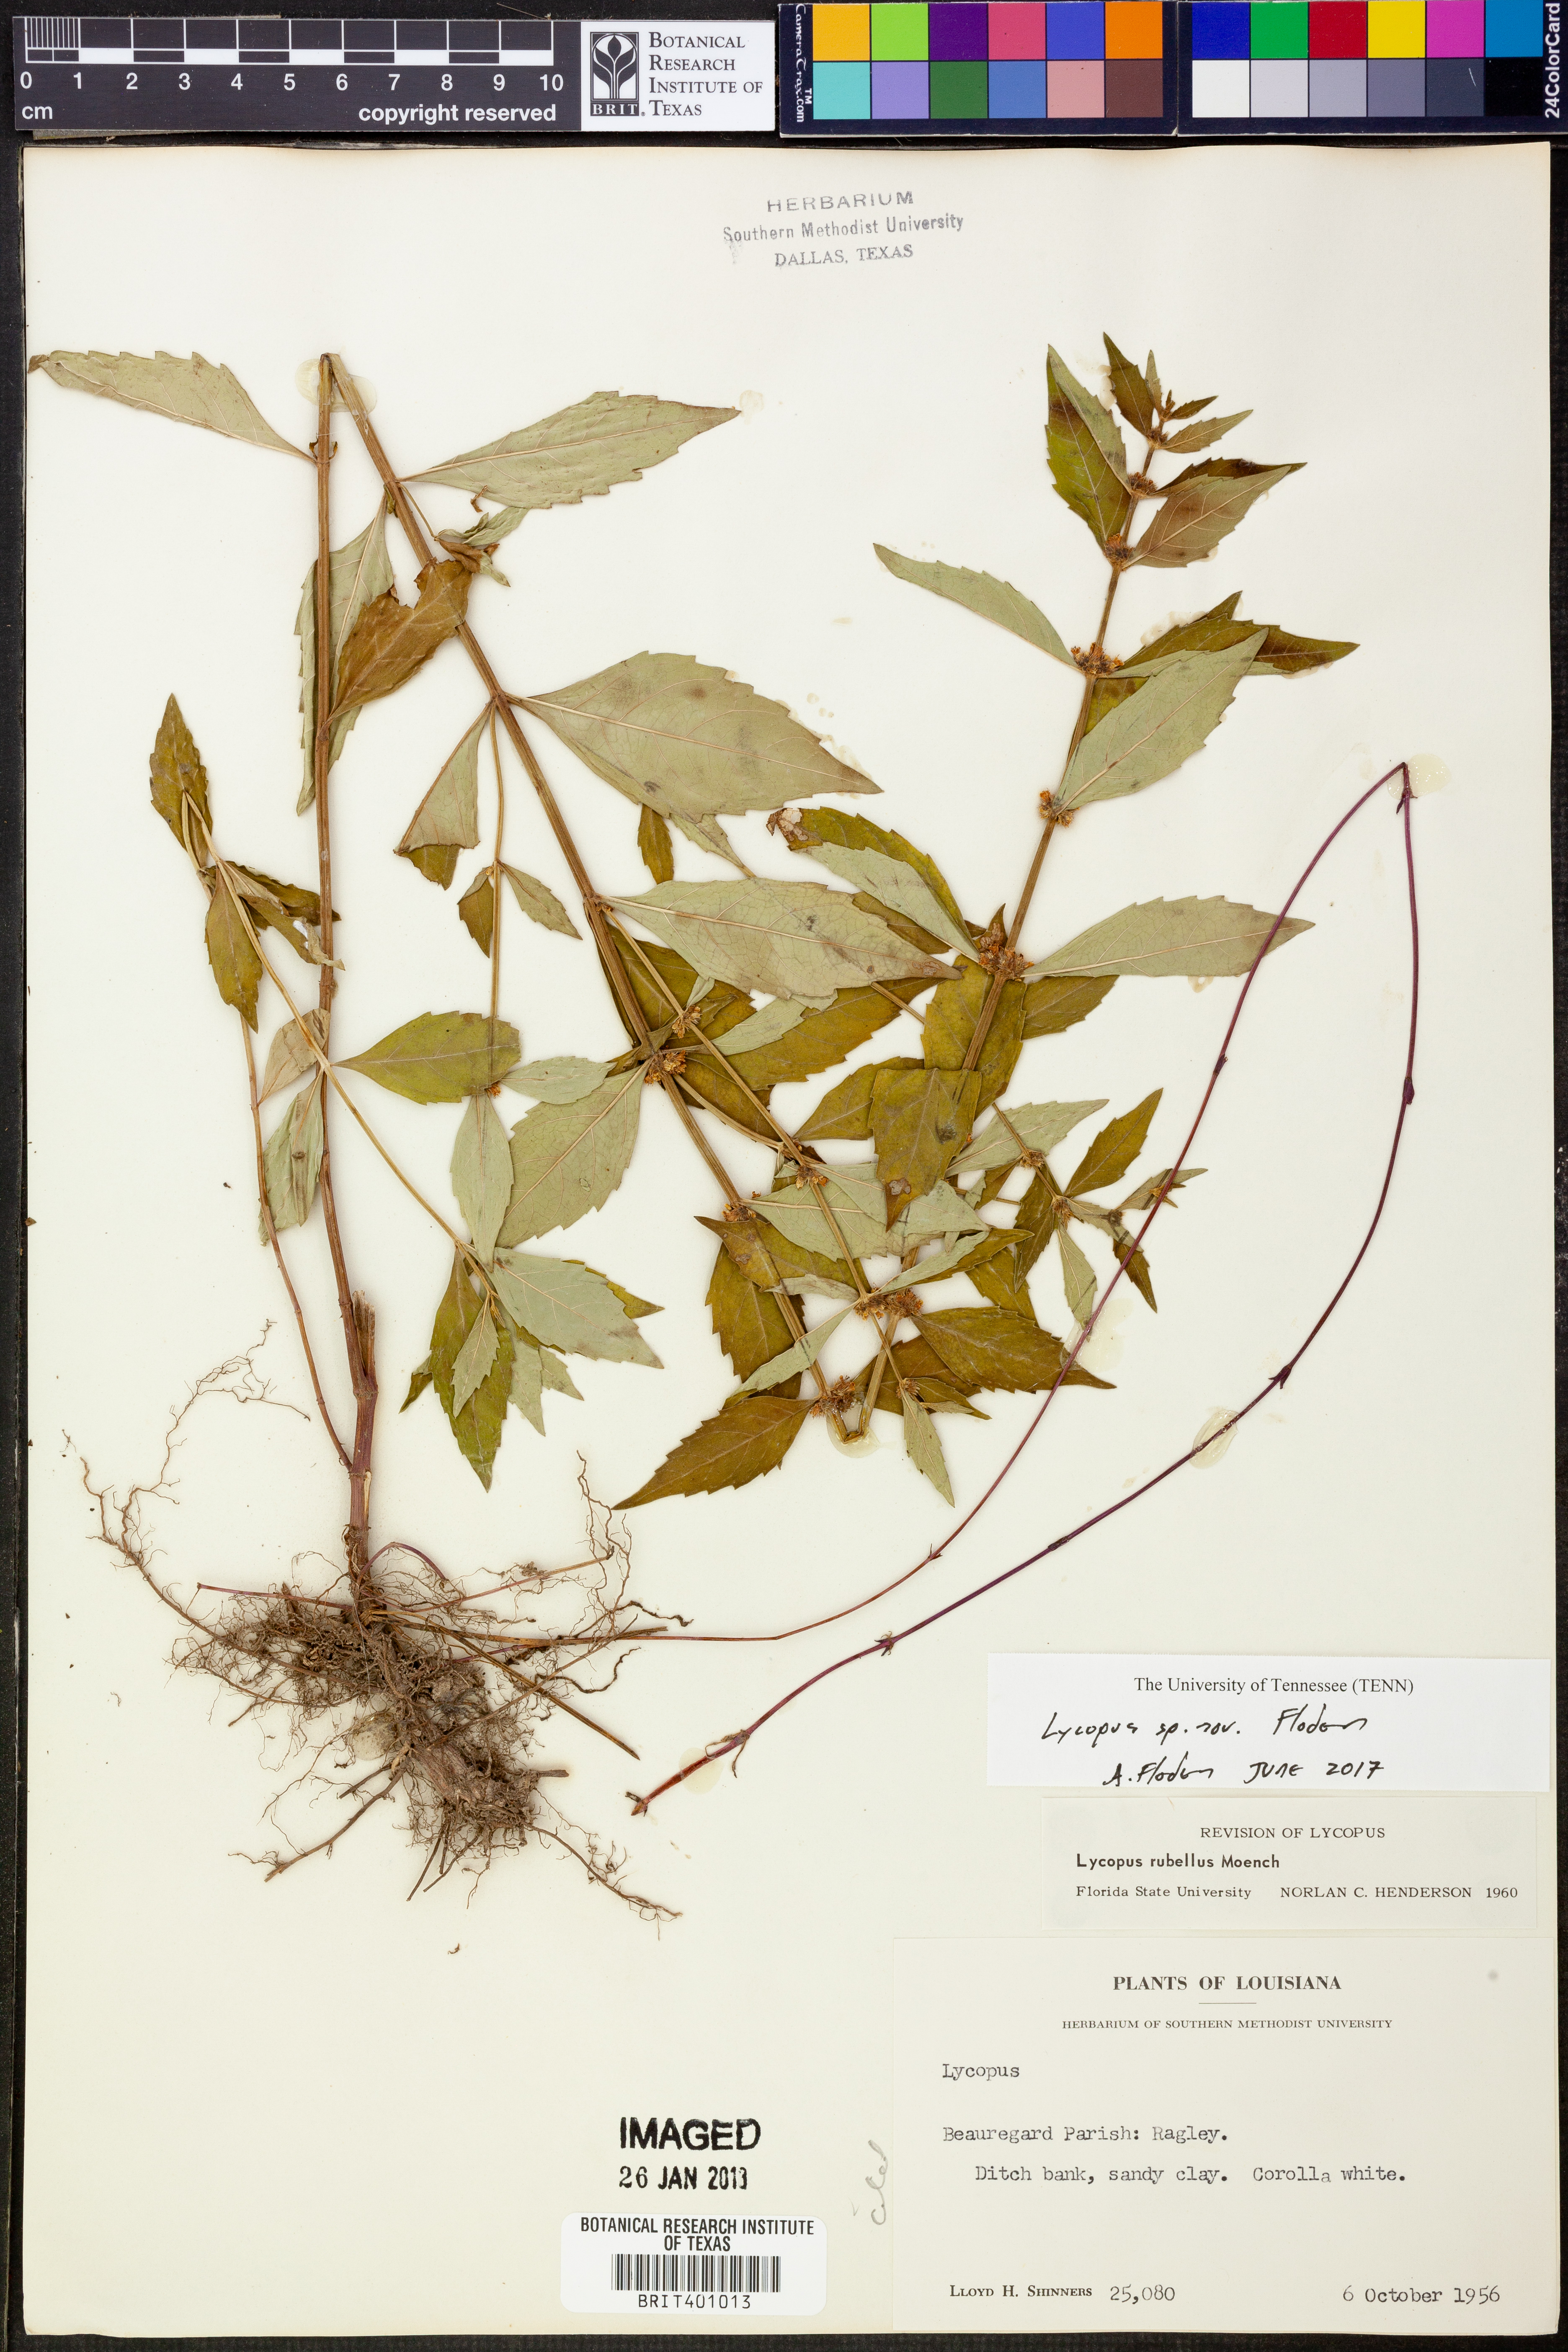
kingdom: Plantae
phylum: Tracheophyta
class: Magnoliopsida
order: Lamiales
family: Lamiaceae
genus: Lycopus
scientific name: Lycopus
